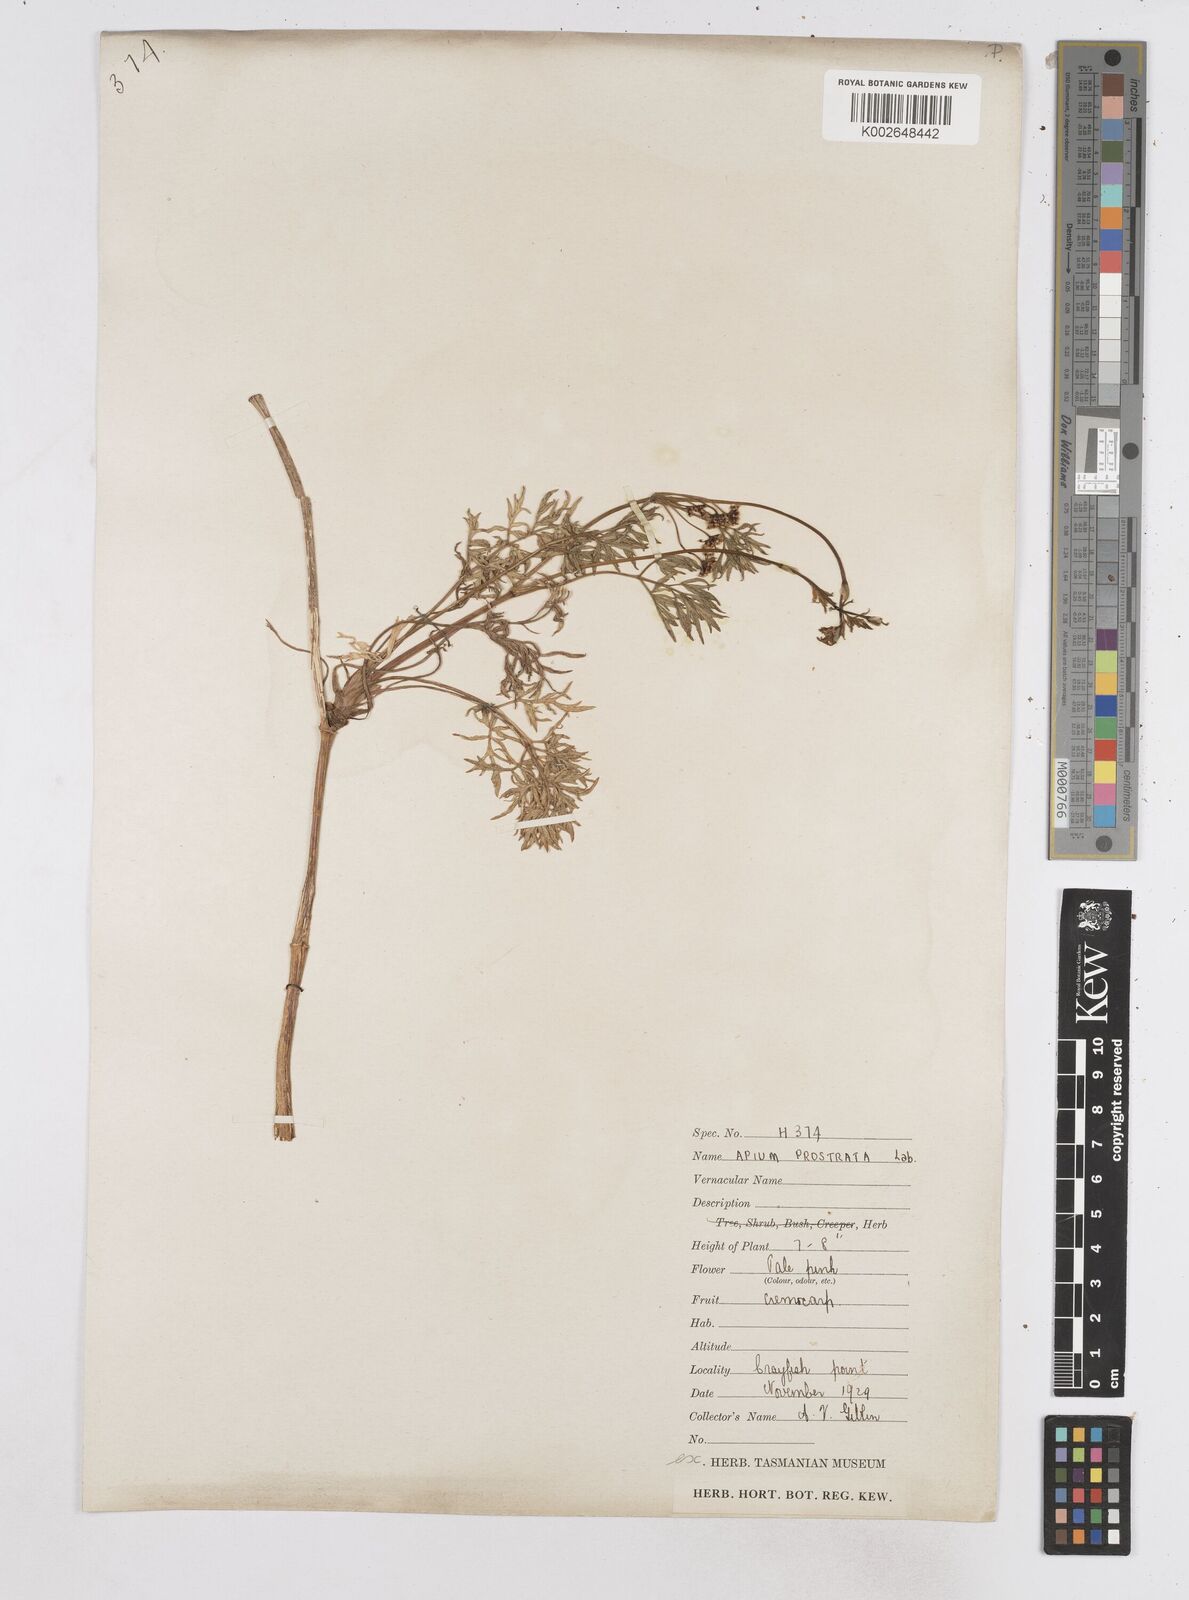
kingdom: Plantae
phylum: Tracheophyta
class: Magnoliopsida
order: Apiales
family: Apiaceae
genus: Apium
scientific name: Apium insulare
